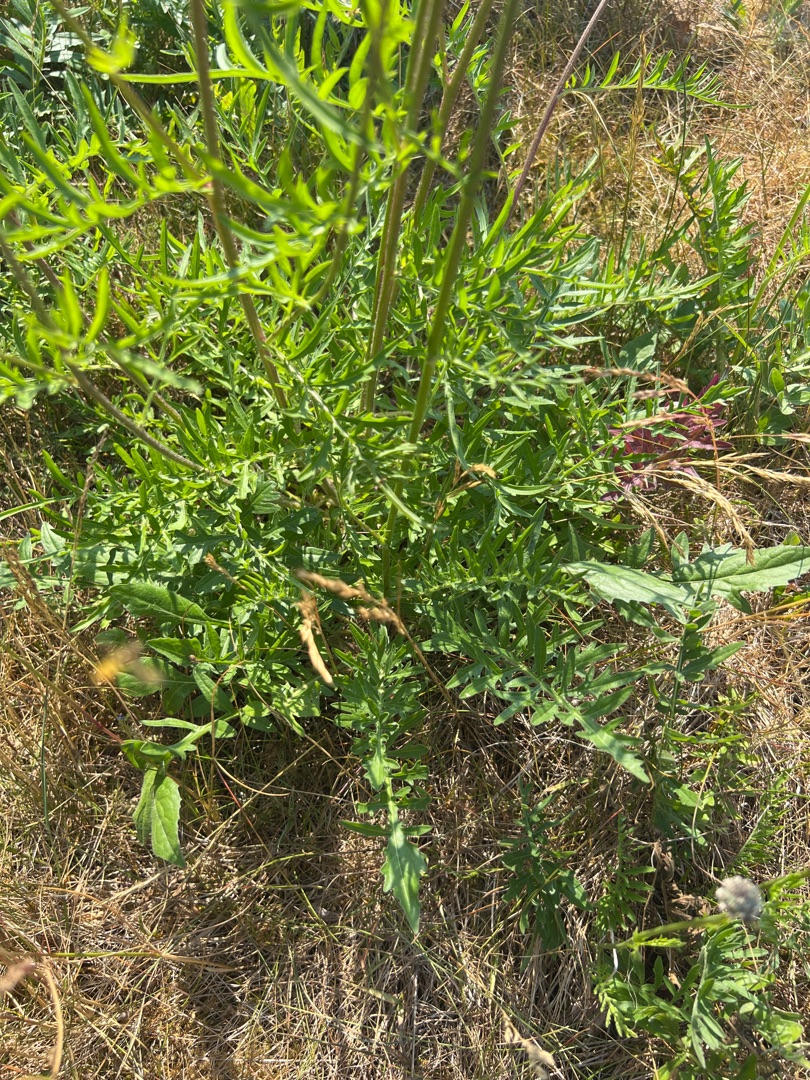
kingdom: Plantae
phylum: Tracheophyta
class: Magnoliopsida
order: Asterales
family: Asteraceae
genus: Centaurea
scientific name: Centaurea scabiosa
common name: Stor knopurt
